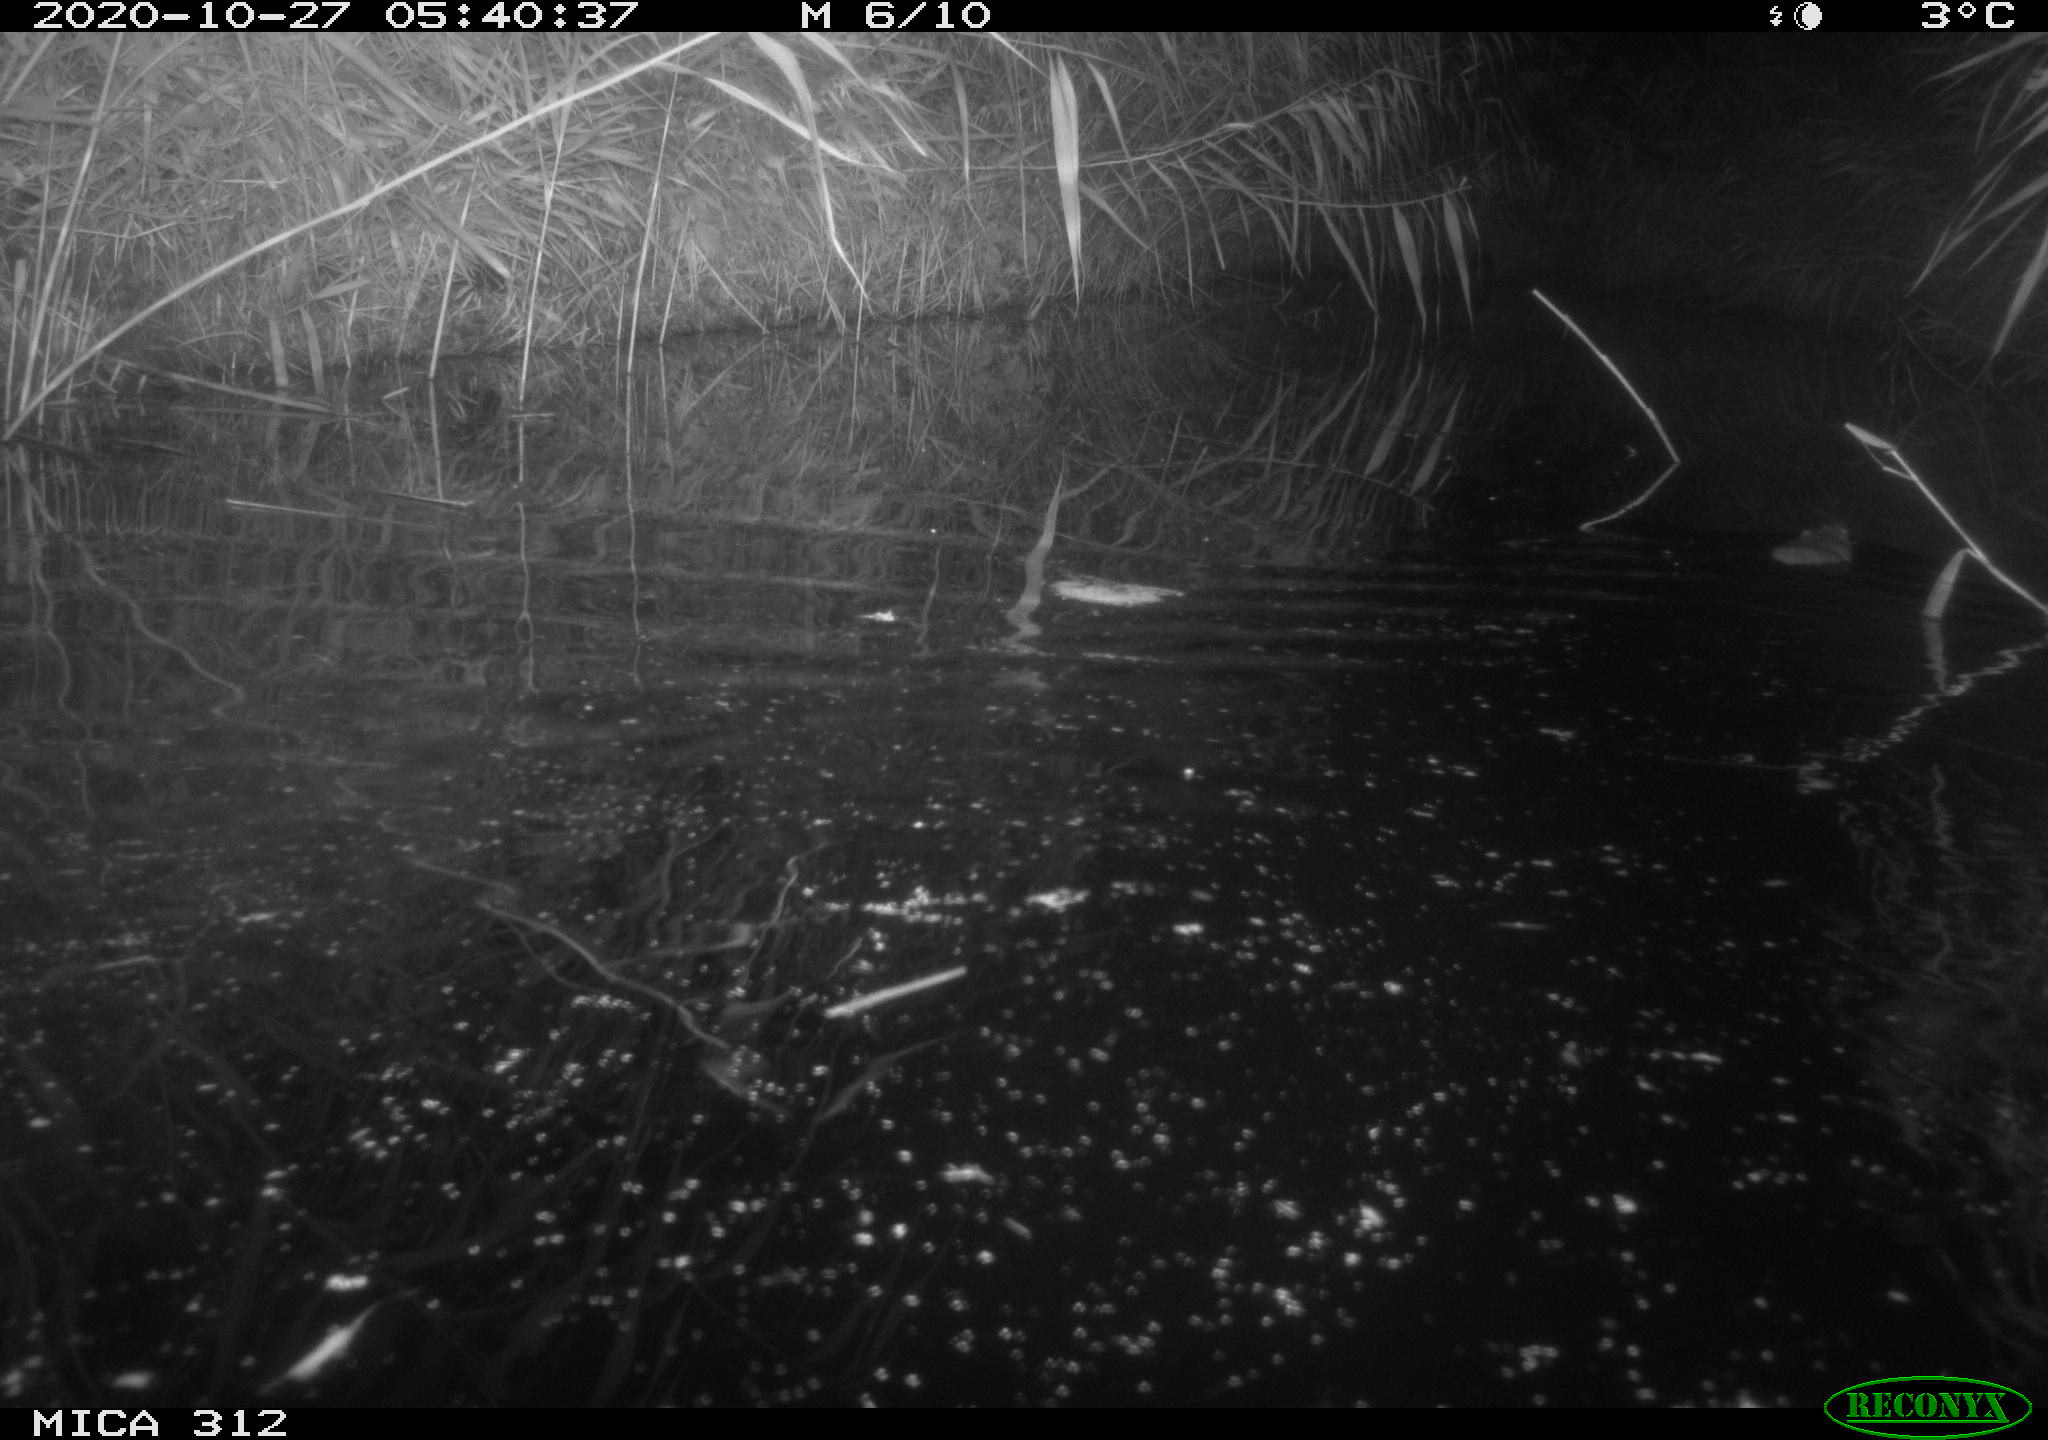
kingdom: Animalia
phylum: Chordata
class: Mammalia
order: Rodentia
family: Muridae
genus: Rattus
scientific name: Rattus norvegicus
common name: Brown rat
